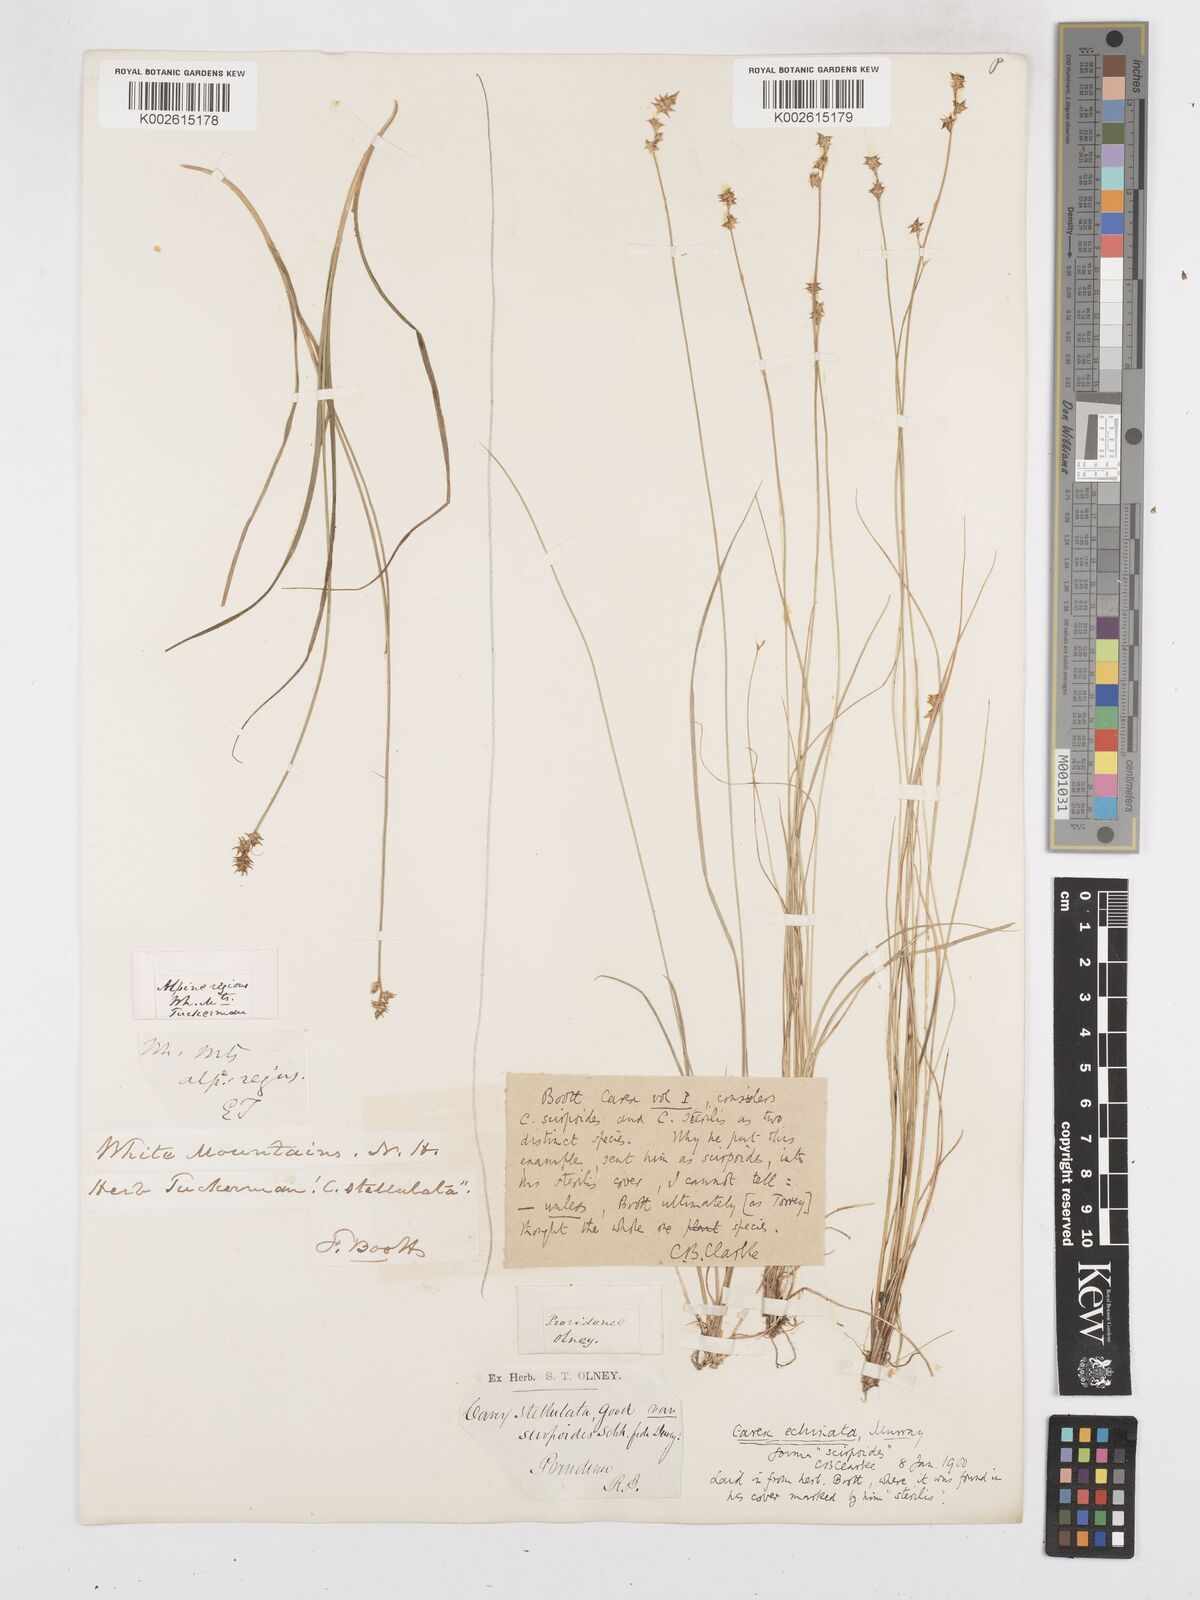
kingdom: Plantae
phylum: Tracheophyta
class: Liliopsida
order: Poales
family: Cyperaceae
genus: Carex
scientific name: Carex echinata
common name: Star sedge
